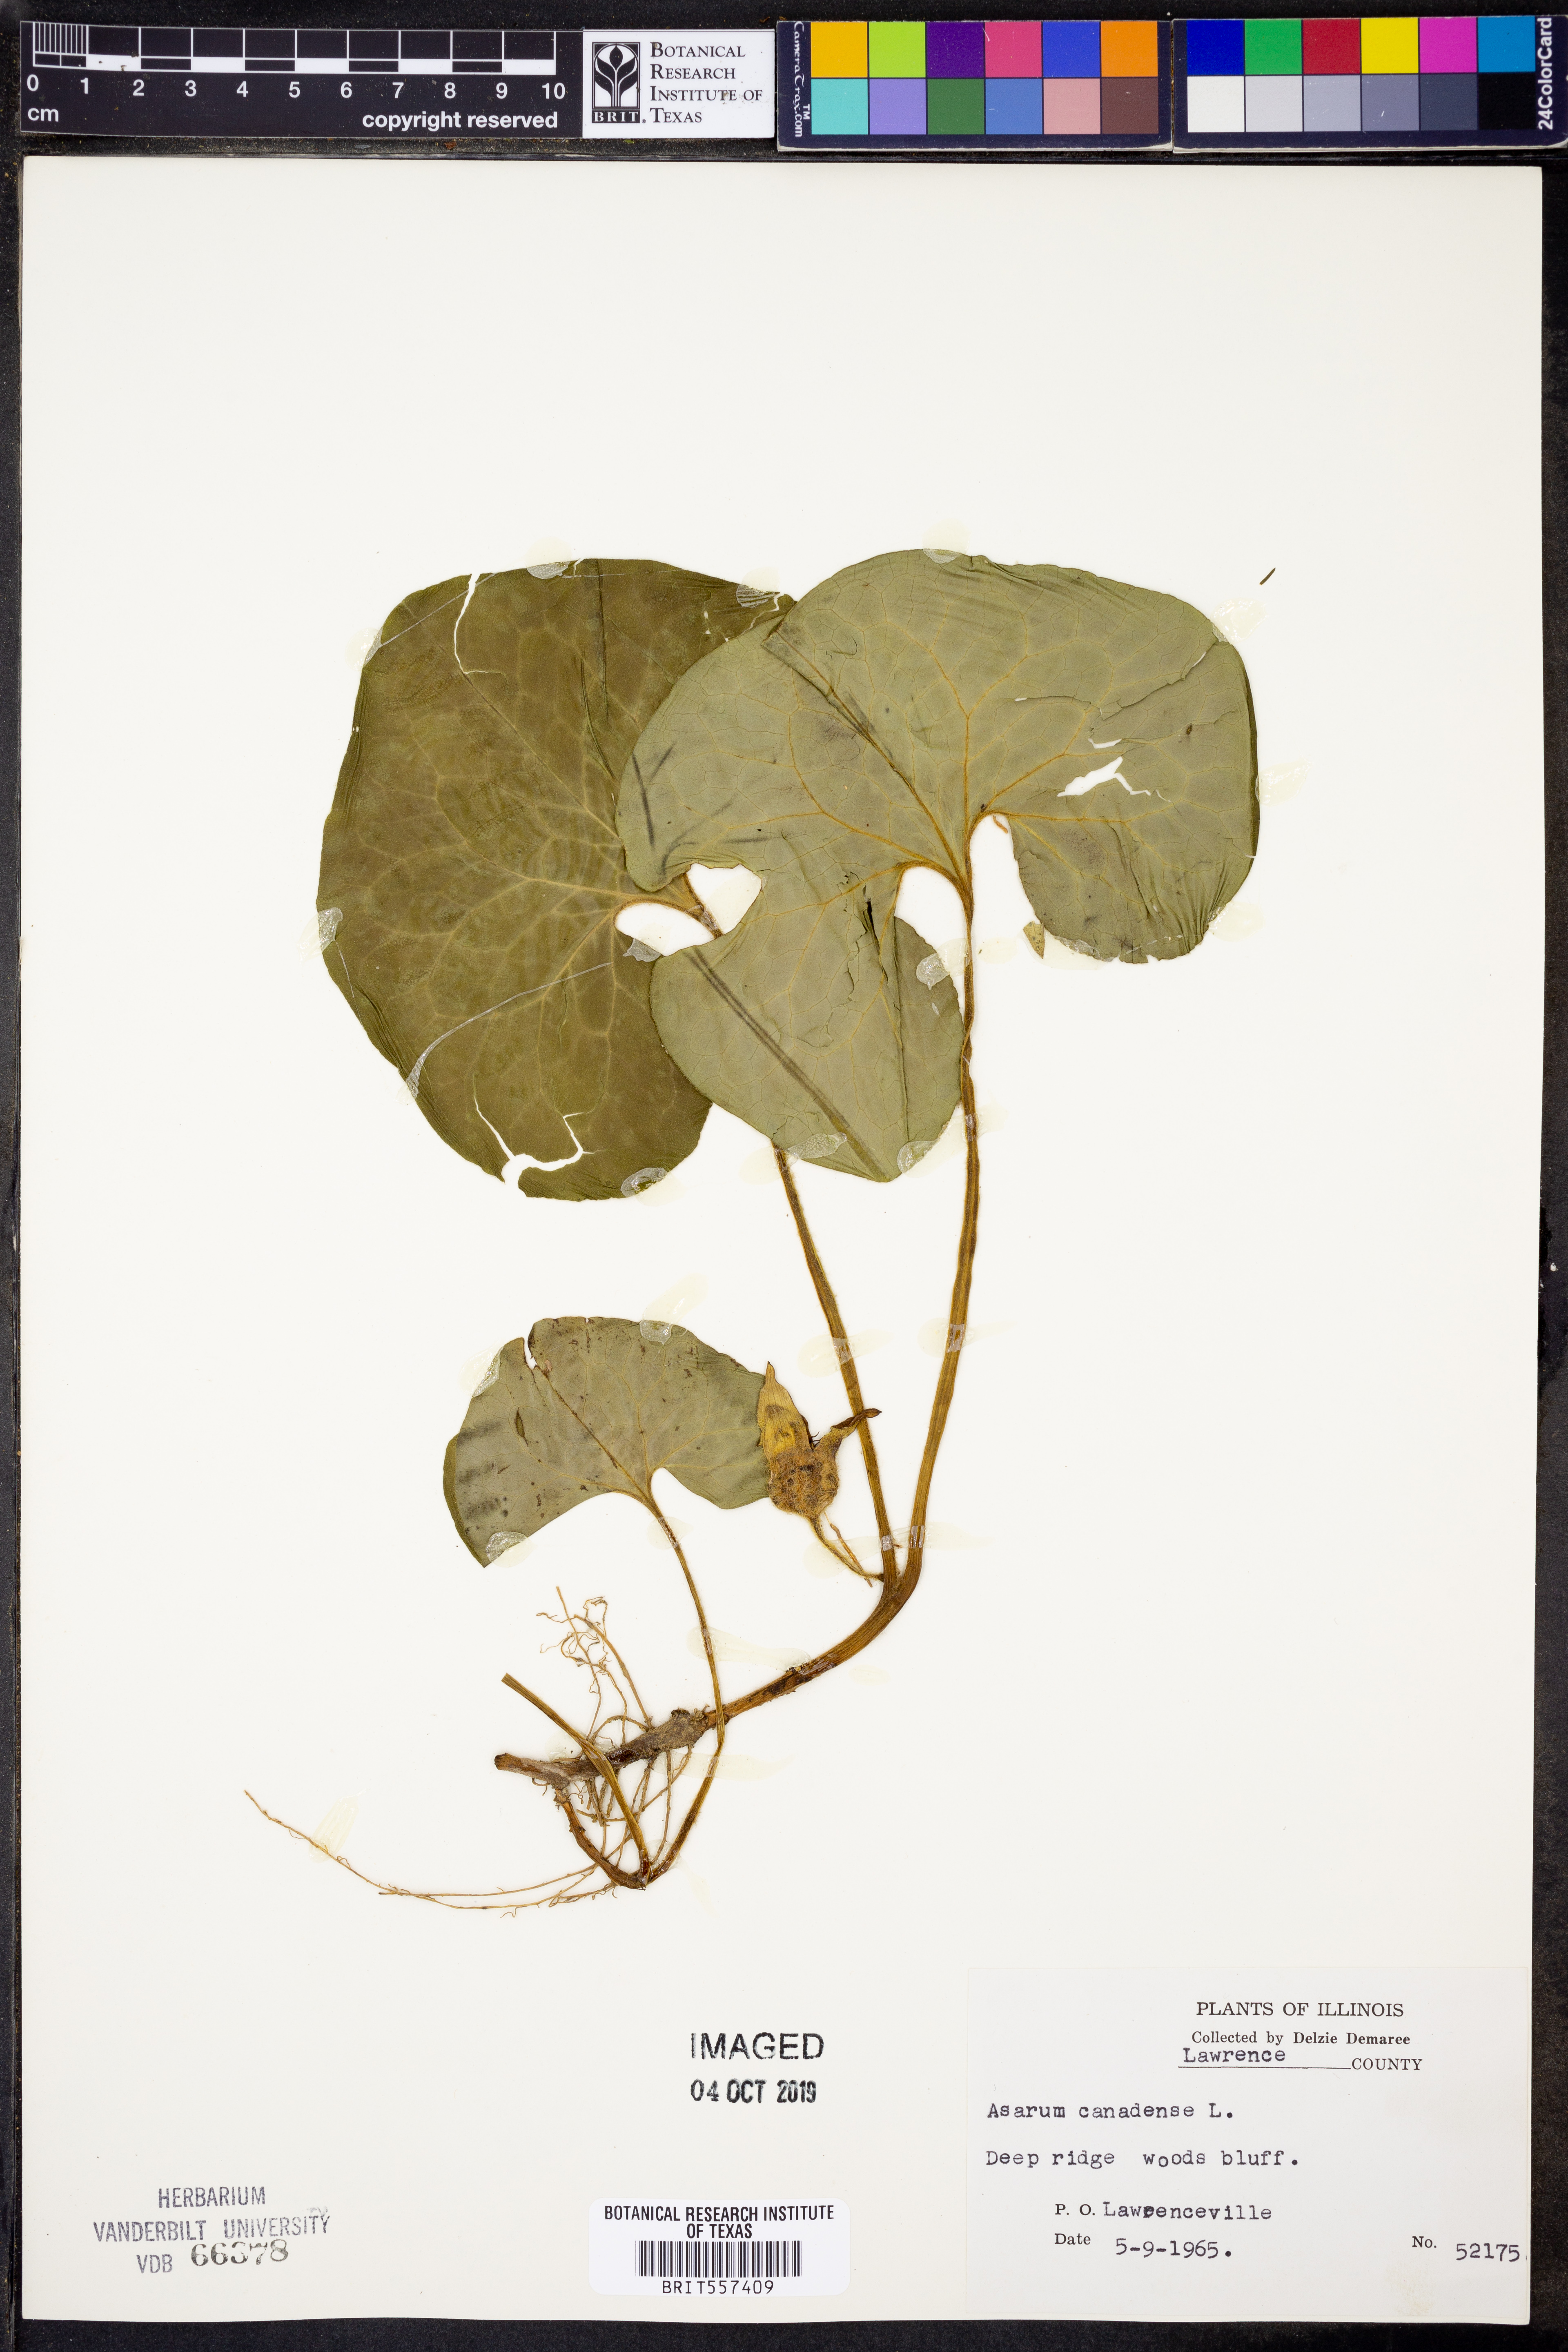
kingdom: Plantae
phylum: Tracheophyta
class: Magnoliopsida
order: Piperales
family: Aristolochiaceae
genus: Asarum
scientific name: Asarum canadense
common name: Wild ginger
